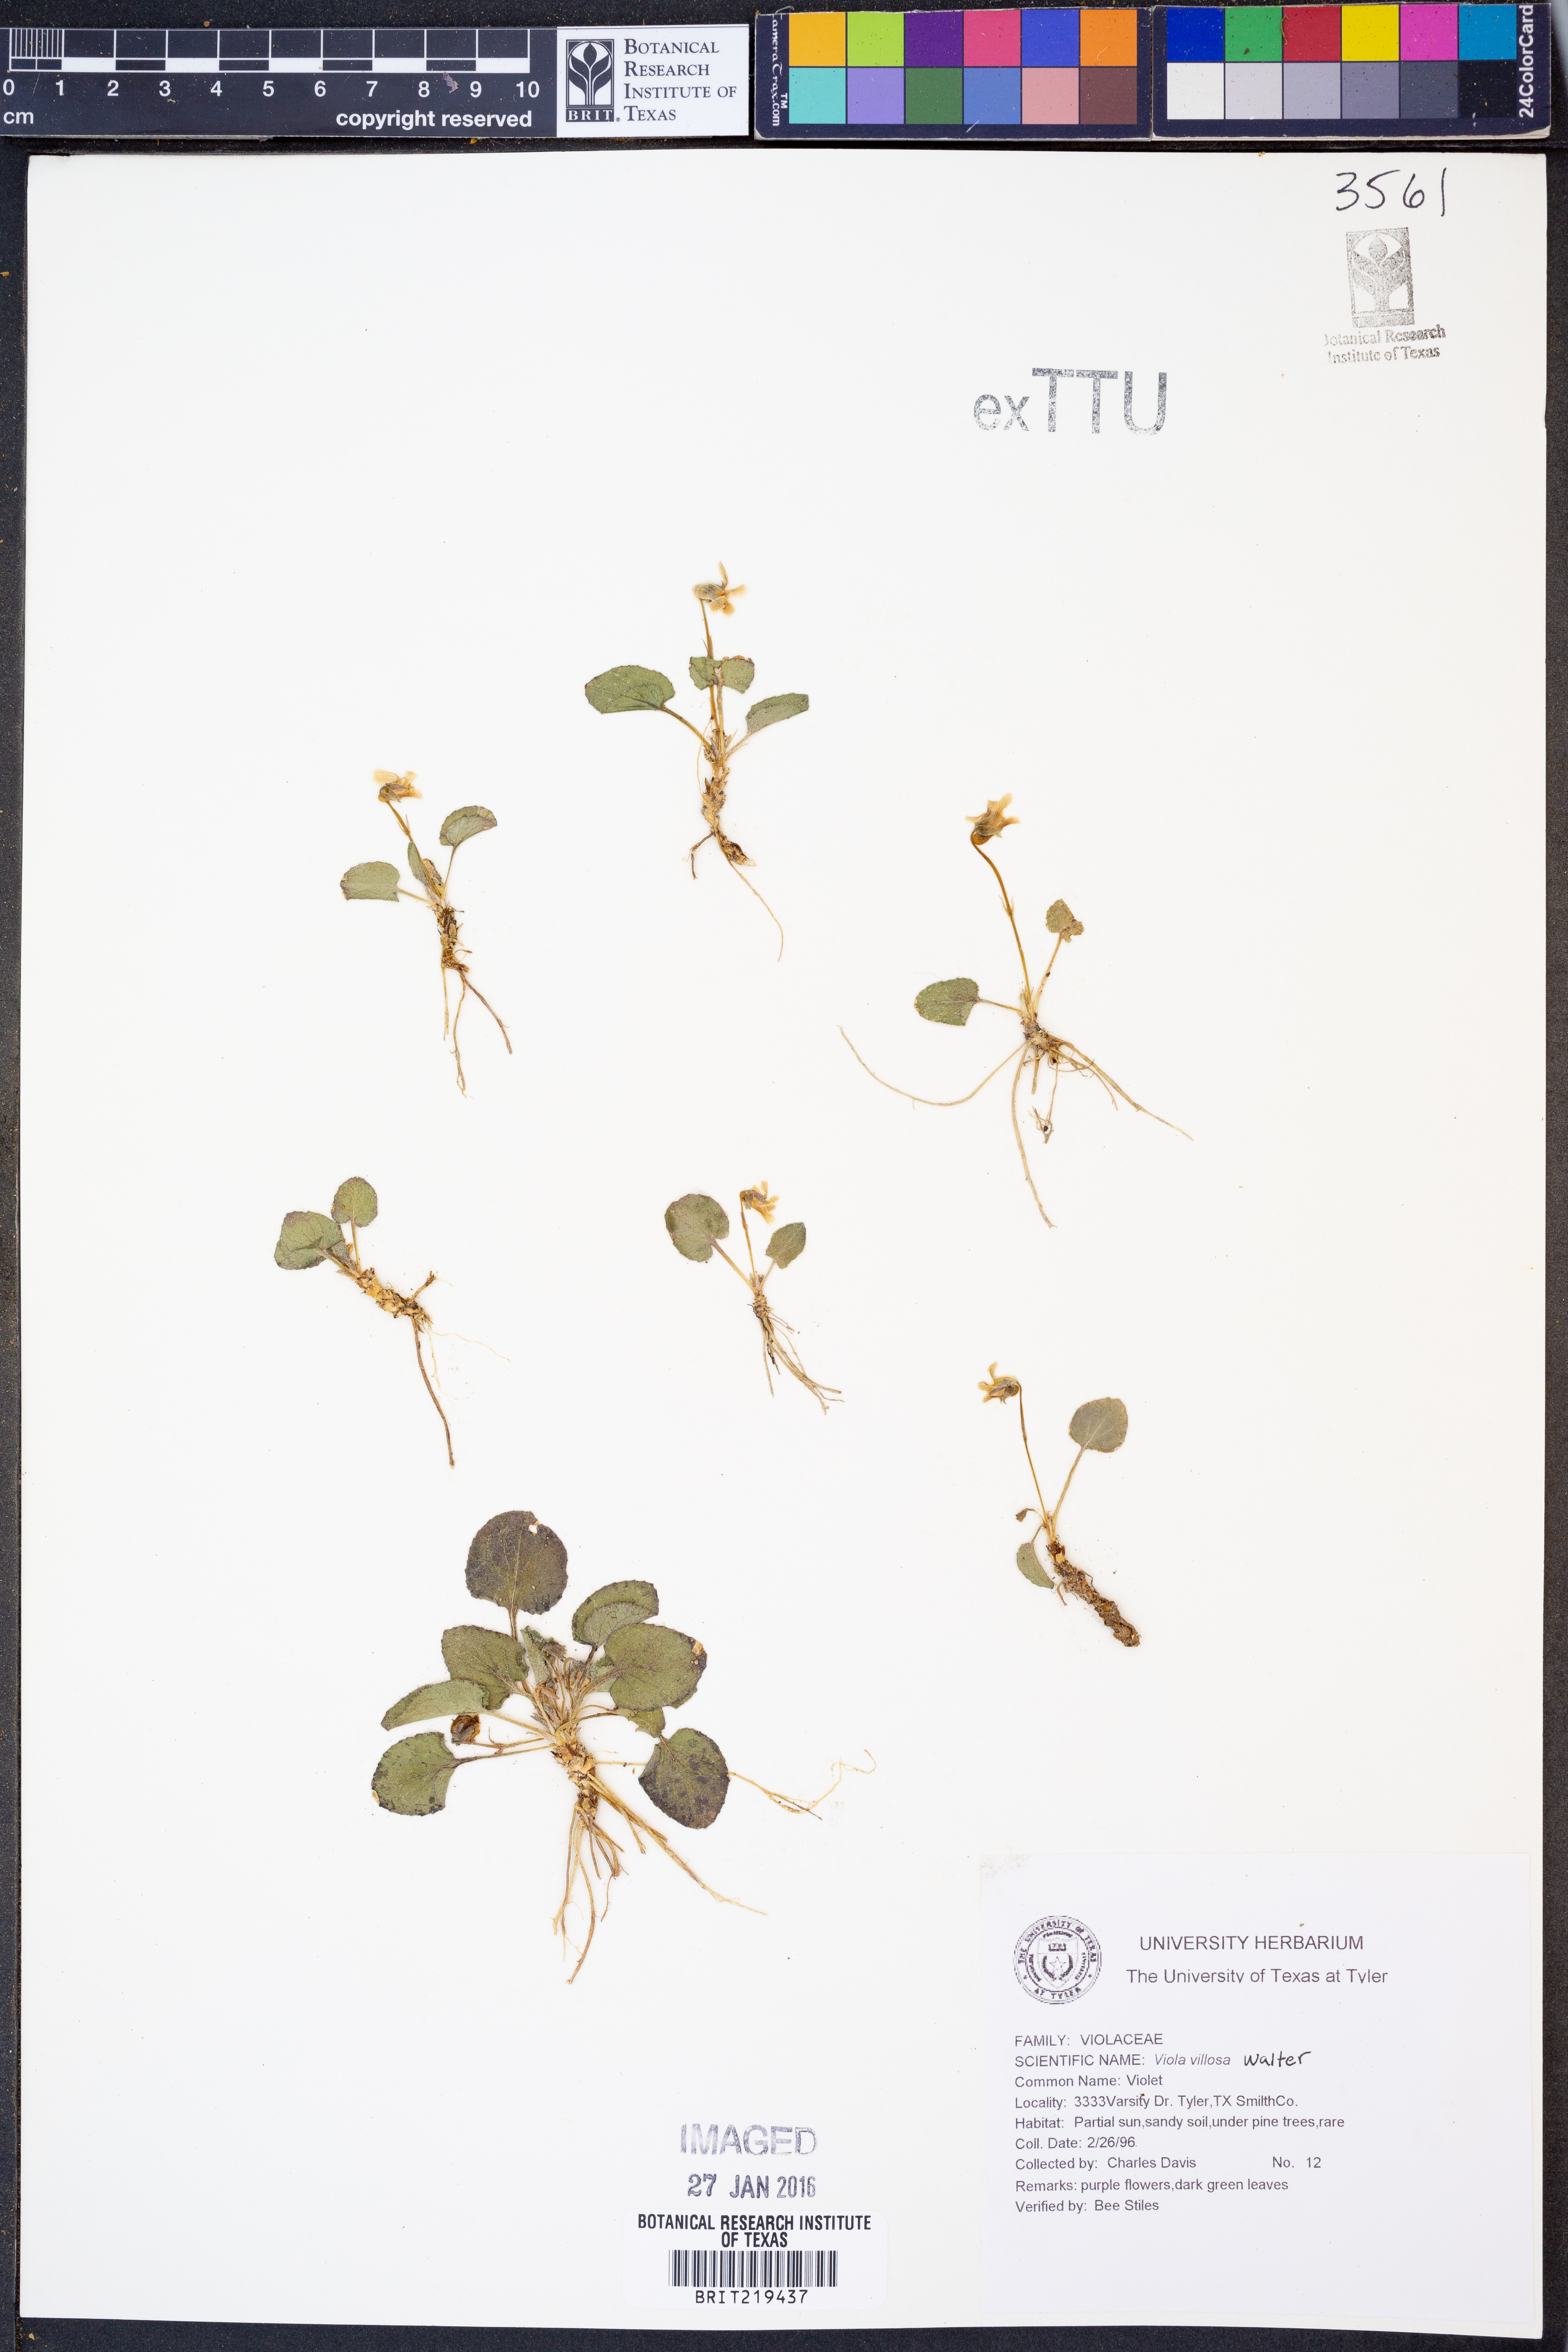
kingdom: Plantae
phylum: Tracheophyta
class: Magnoliopsida
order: Malpighiales
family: Violaceae
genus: Viola
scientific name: Viola villosa
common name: Carolina violet
